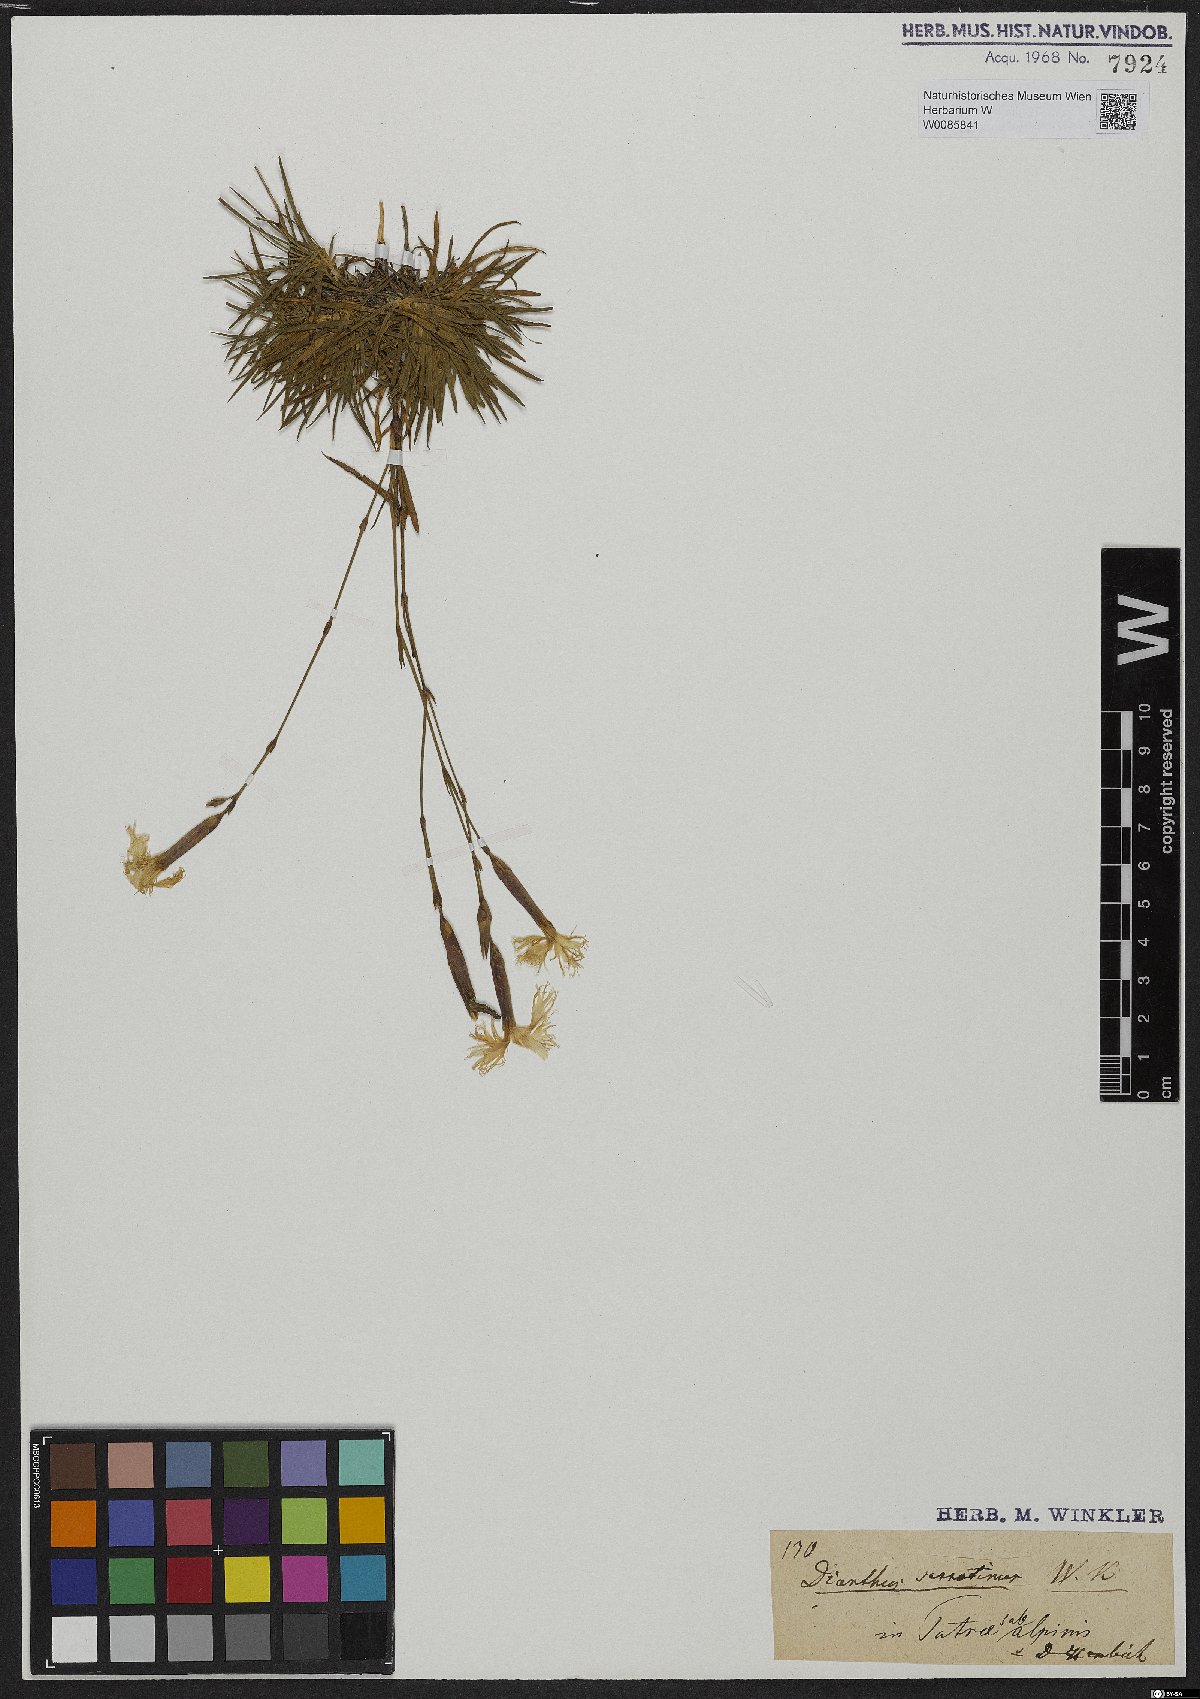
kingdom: Plantae
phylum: Tracheophyta
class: Magnoliopsida
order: Caryophyllales
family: Caryophyllaceae
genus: Dianthus
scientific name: Dianthus serotinus
